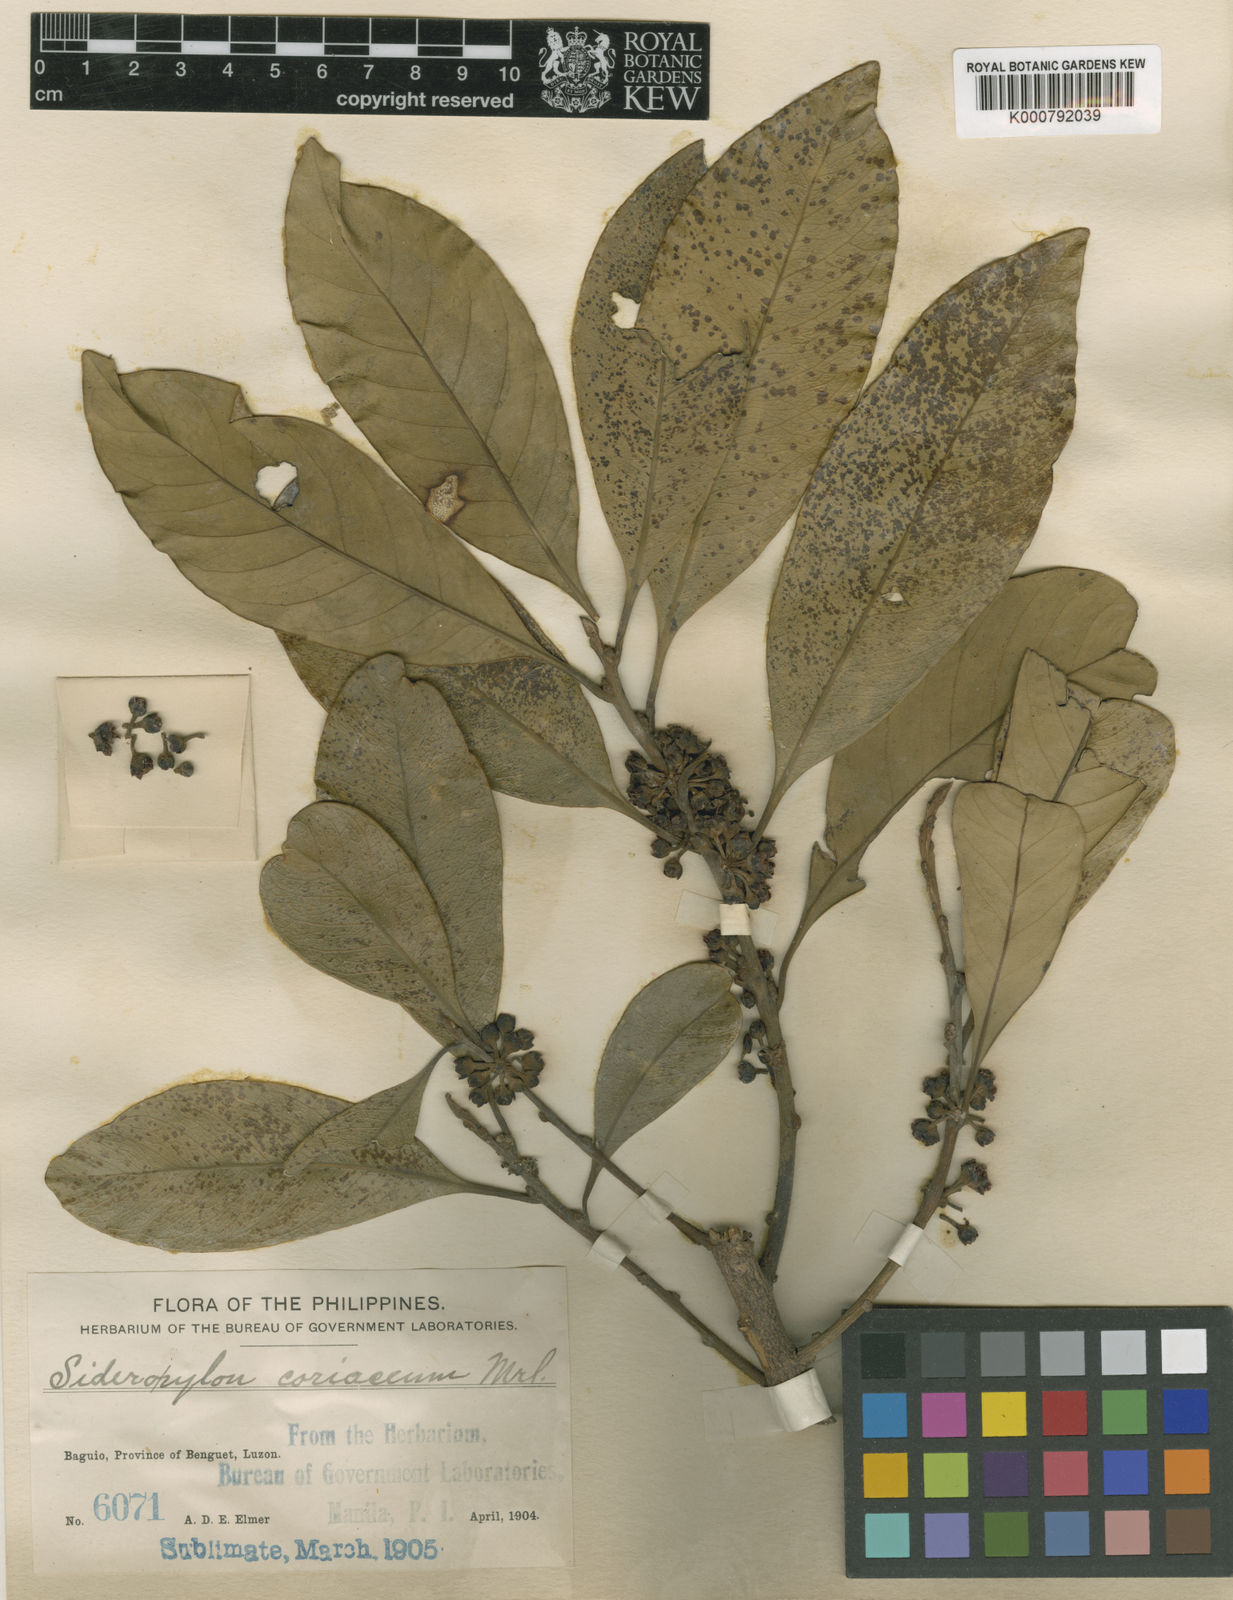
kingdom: Plantae
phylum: Tracheophyta
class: Magnoliopsida
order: Ericales
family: Sapotaceae
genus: Planchonella
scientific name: Planchonella obovata
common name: Black-ash
